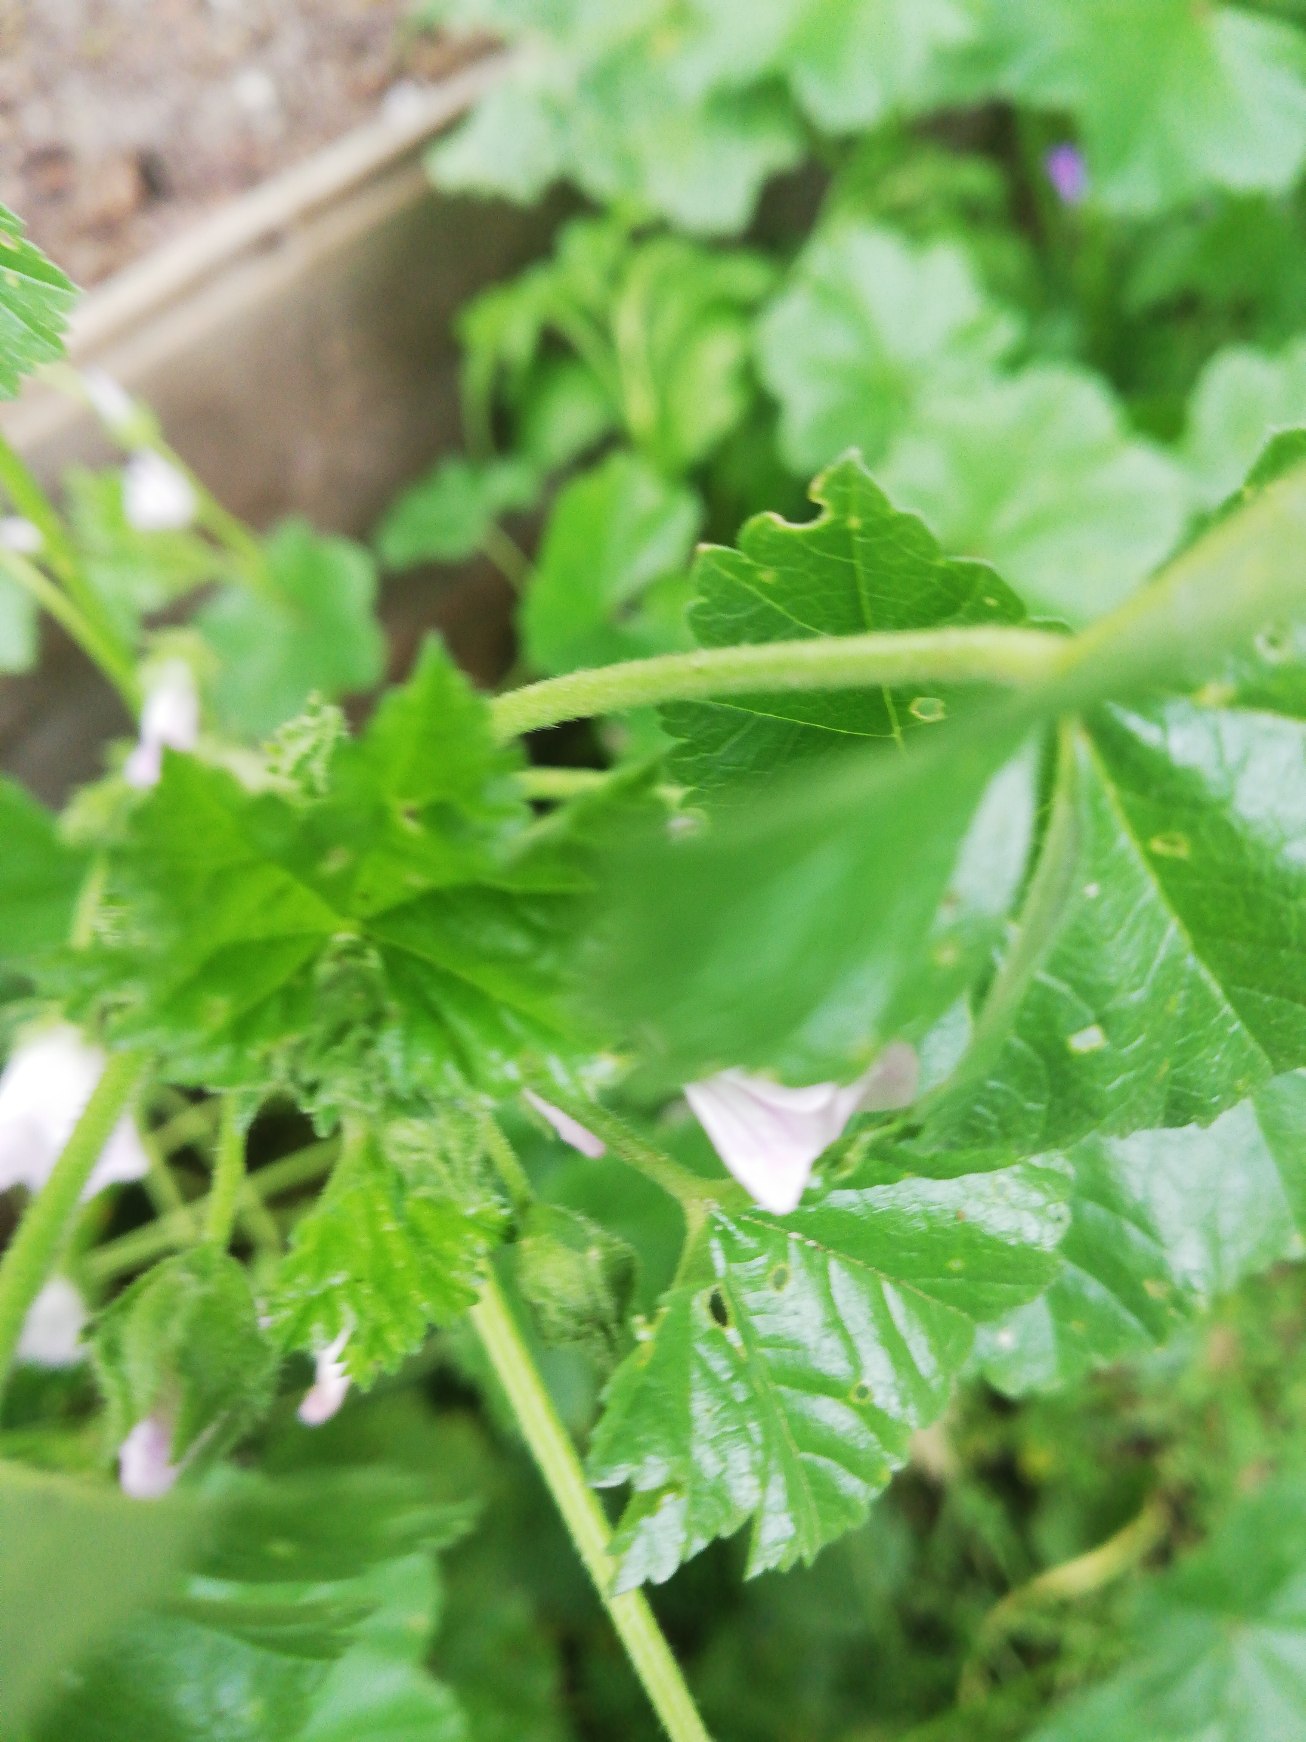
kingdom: Plantae
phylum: Tracheophyta
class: Magnoliopsida
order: Malvales
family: Malvaceae
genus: Malva
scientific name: Malva neglecta
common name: Rundbladet katost
